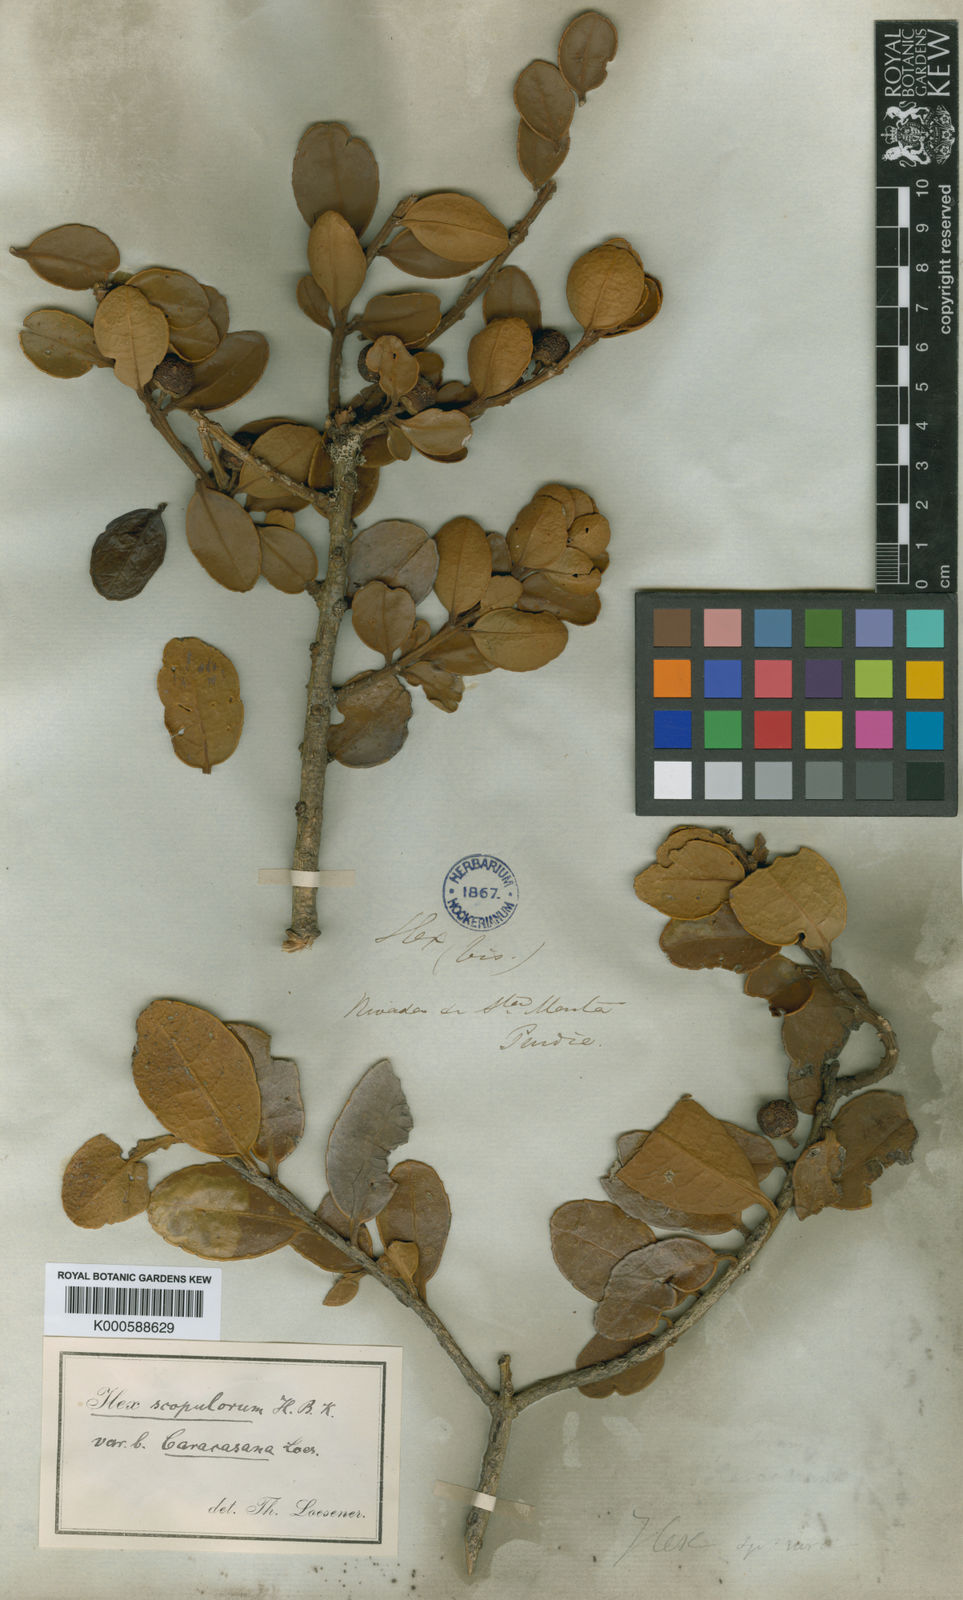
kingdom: Plantae
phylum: Tracheophyta
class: Magnoliopsida
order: Aquifoliales
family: Aquifoliaceae
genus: Ilex
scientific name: Ilex scopulorum
